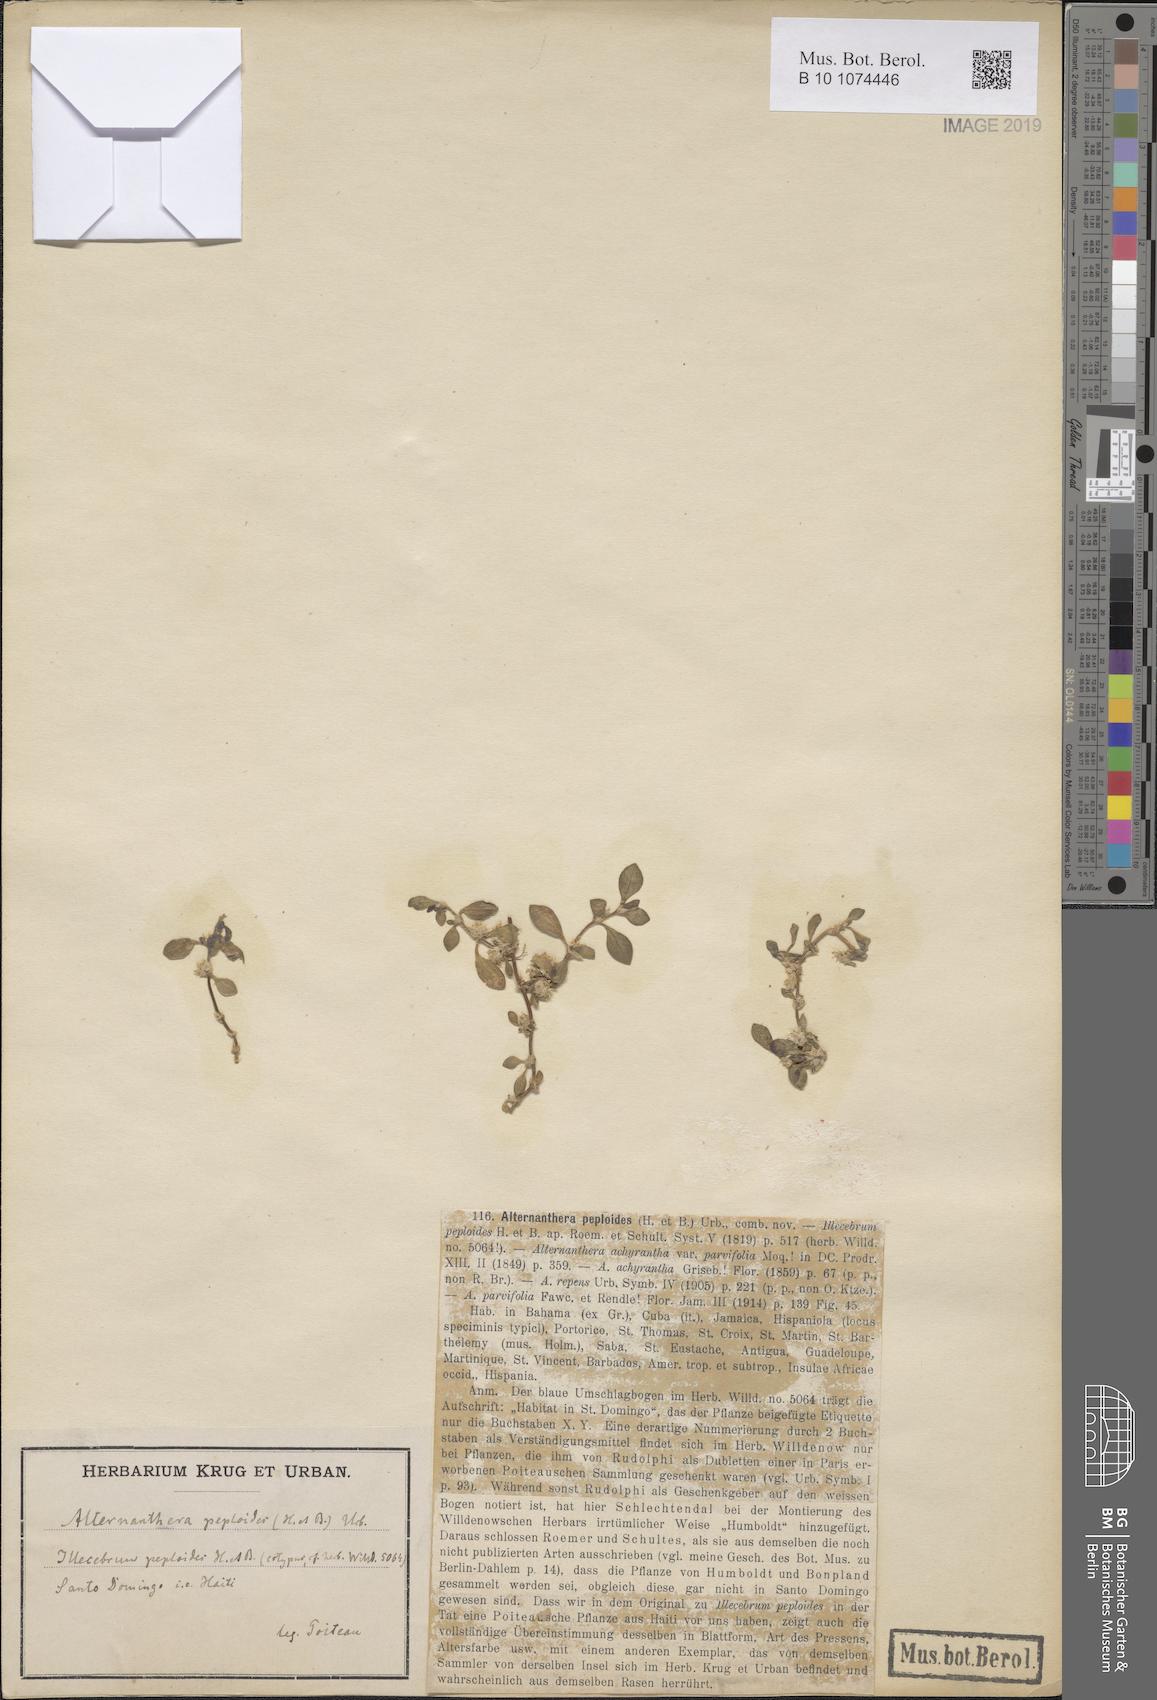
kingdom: Plantae
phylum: Tracheophyta
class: Magnoliopsida
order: Caryophyllales
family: Amaranthaceae
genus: Alternanthera
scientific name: Alternanthera caracasana
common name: Washerwoman
